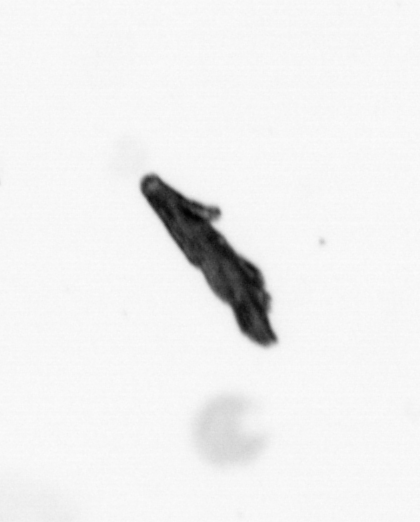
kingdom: Animalia
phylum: Annelida
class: Polychaeta
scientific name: Polychaeta
